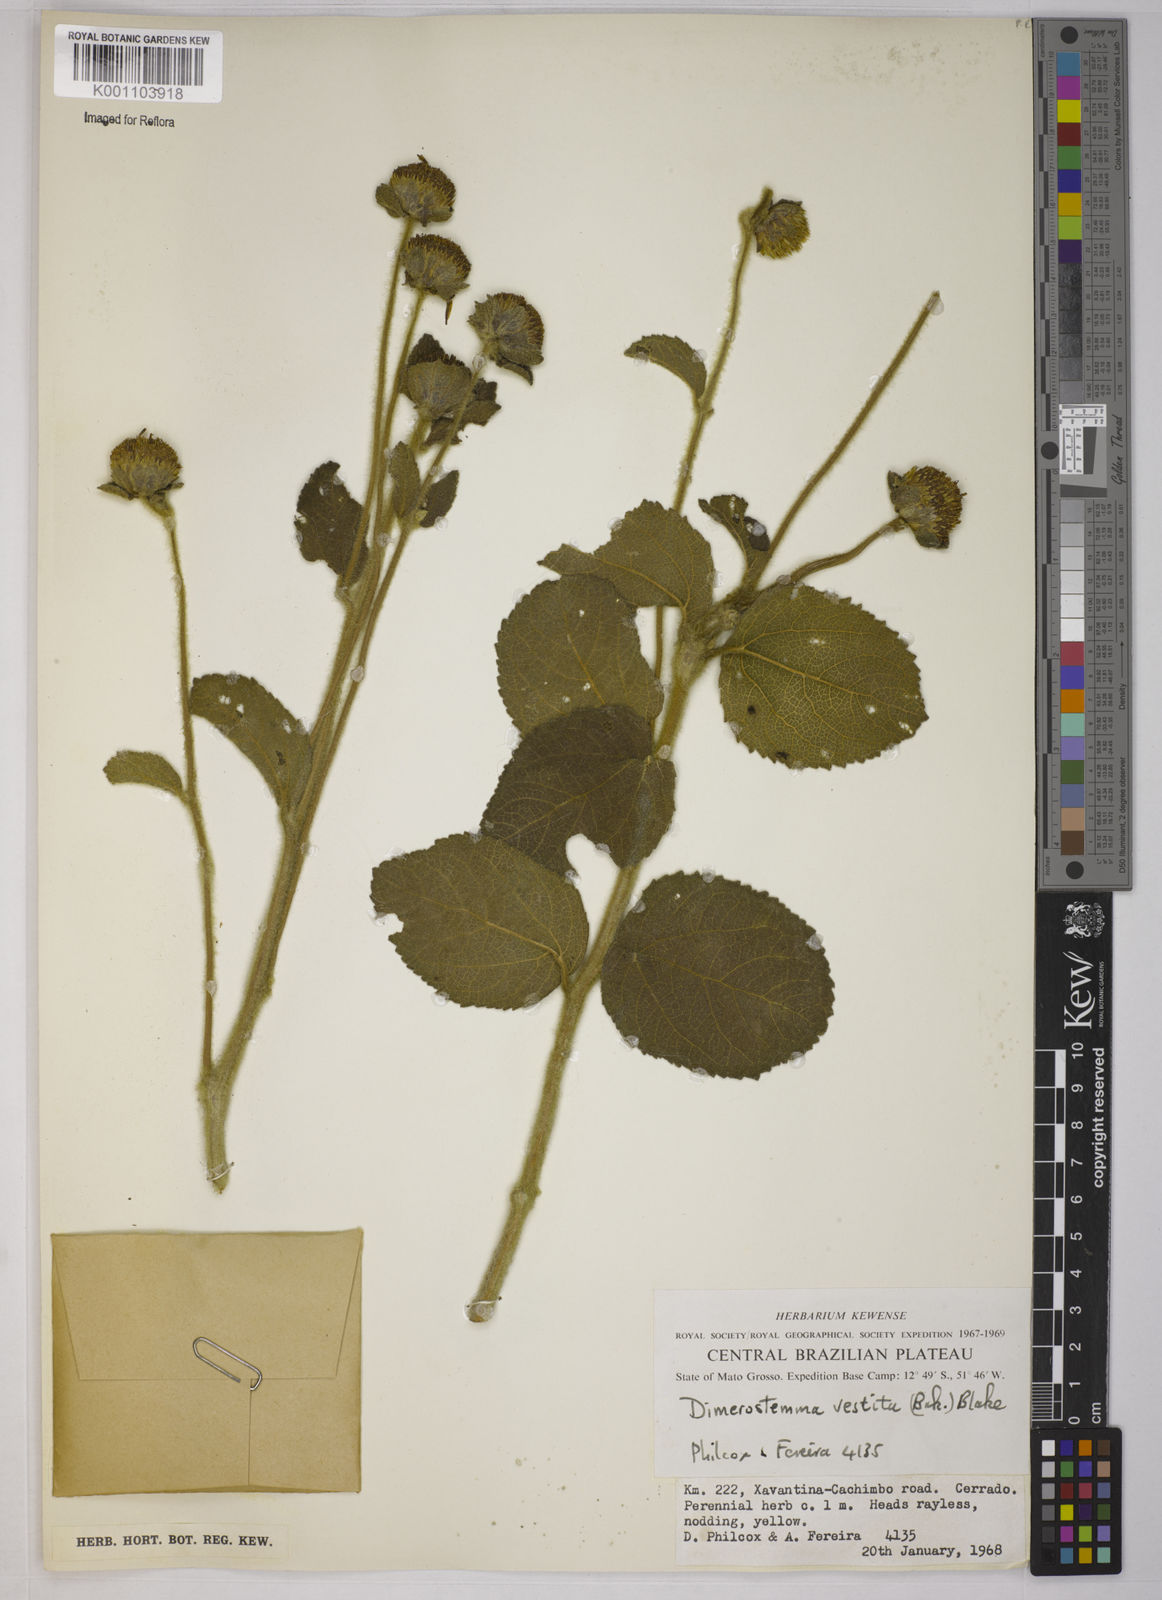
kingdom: Plantae
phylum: Tracheophyta
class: Magnoliopsida
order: Asterales
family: Asteraceae
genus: Dimerostemma
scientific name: Dimerostemma vestitum
